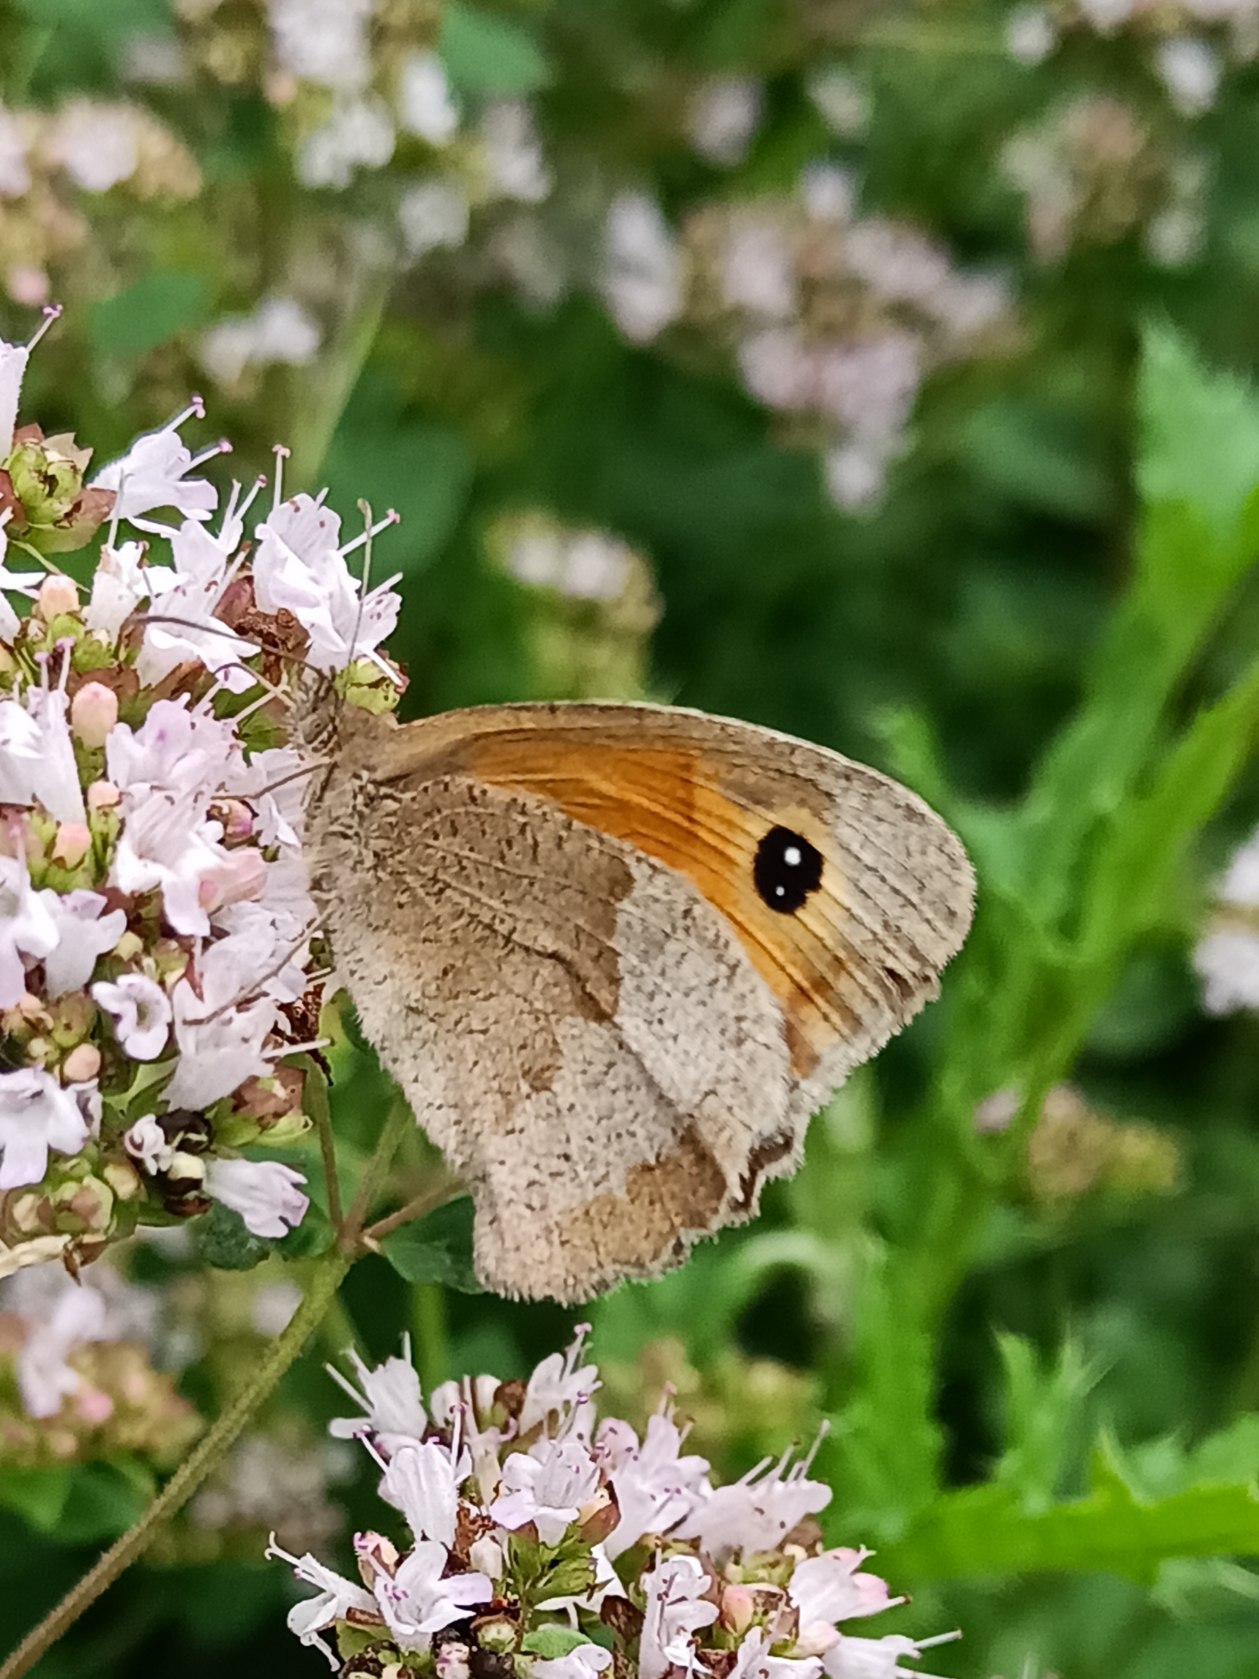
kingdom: Animalia
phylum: Arthropoda
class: Insecta
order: Lepidoptera
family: Nymphalidae
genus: Maniola
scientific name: Maniola jurtina
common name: Græsrandøje
